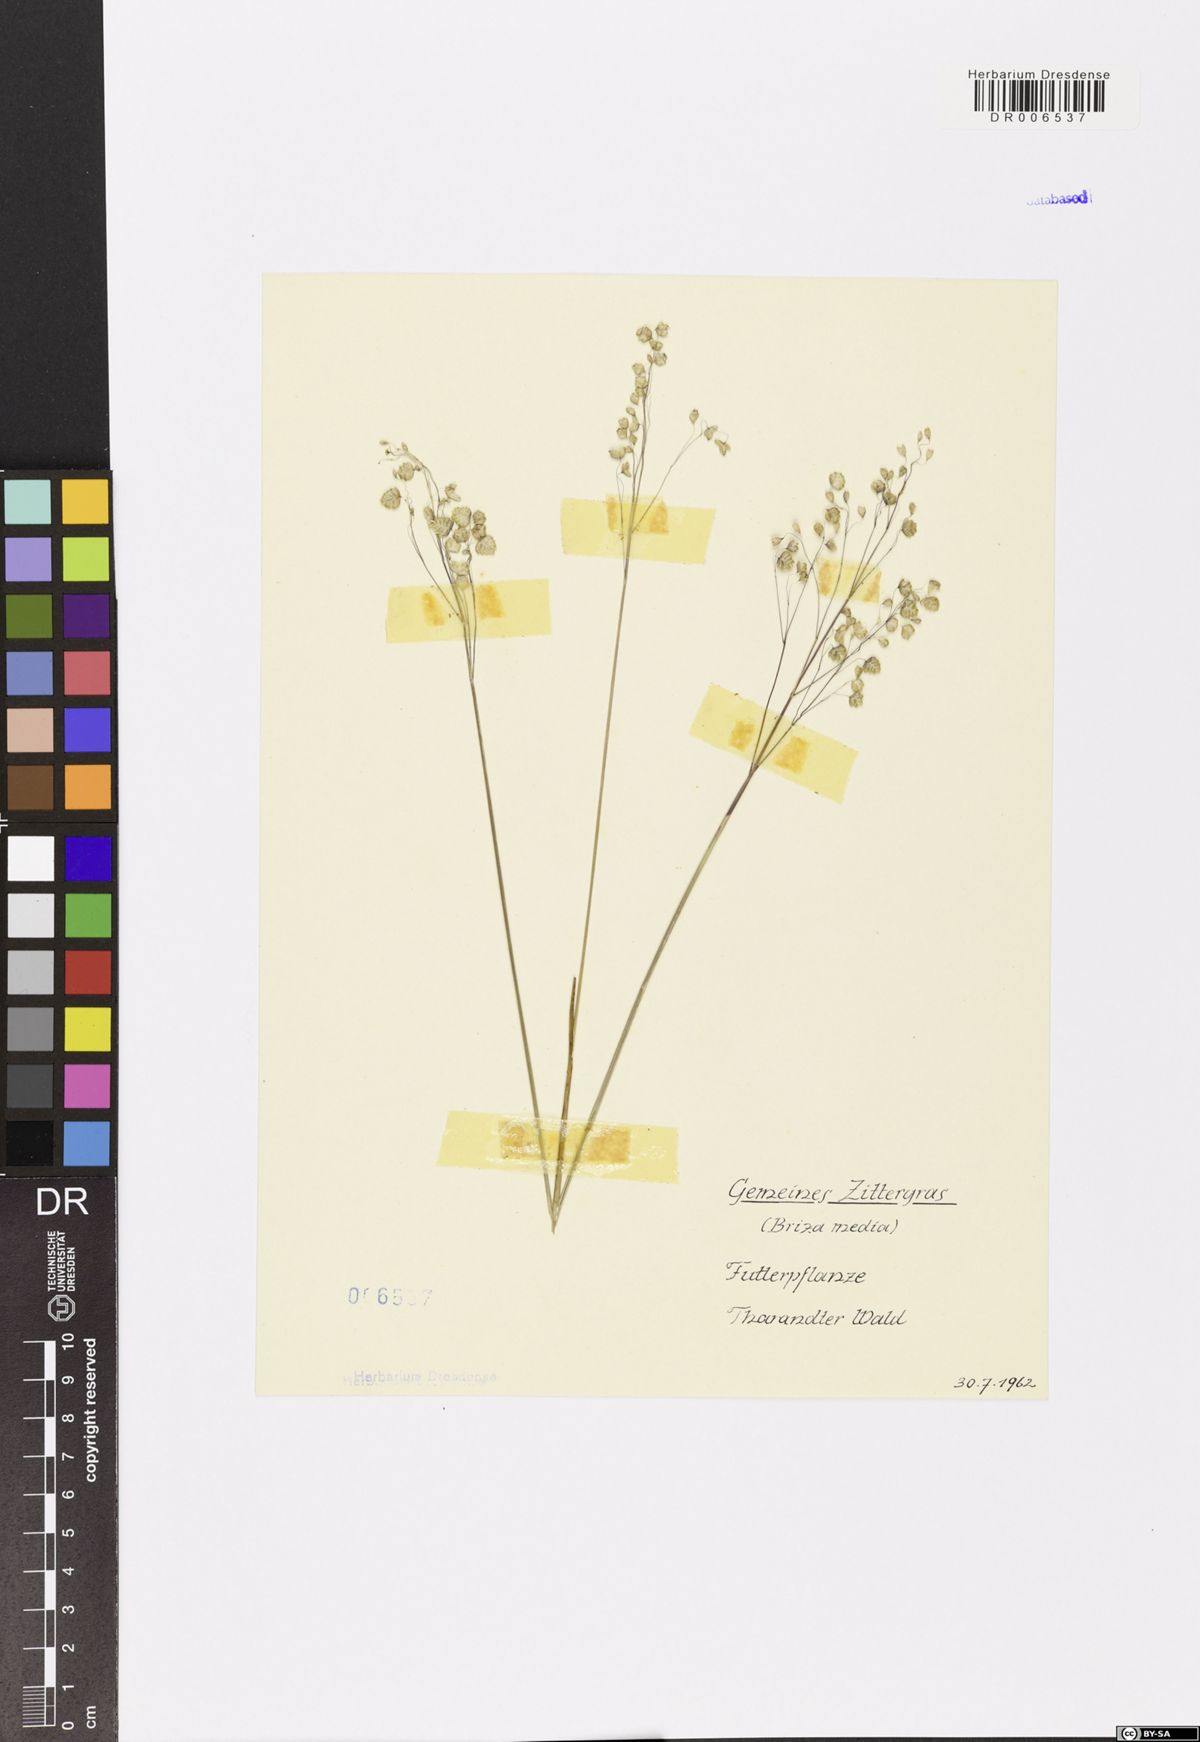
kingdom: Plantae
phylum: Tracheophyta
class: Liliopsida
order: Poales
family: Poaceae
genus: Briza
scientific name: Briza media
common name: Quaking grass
